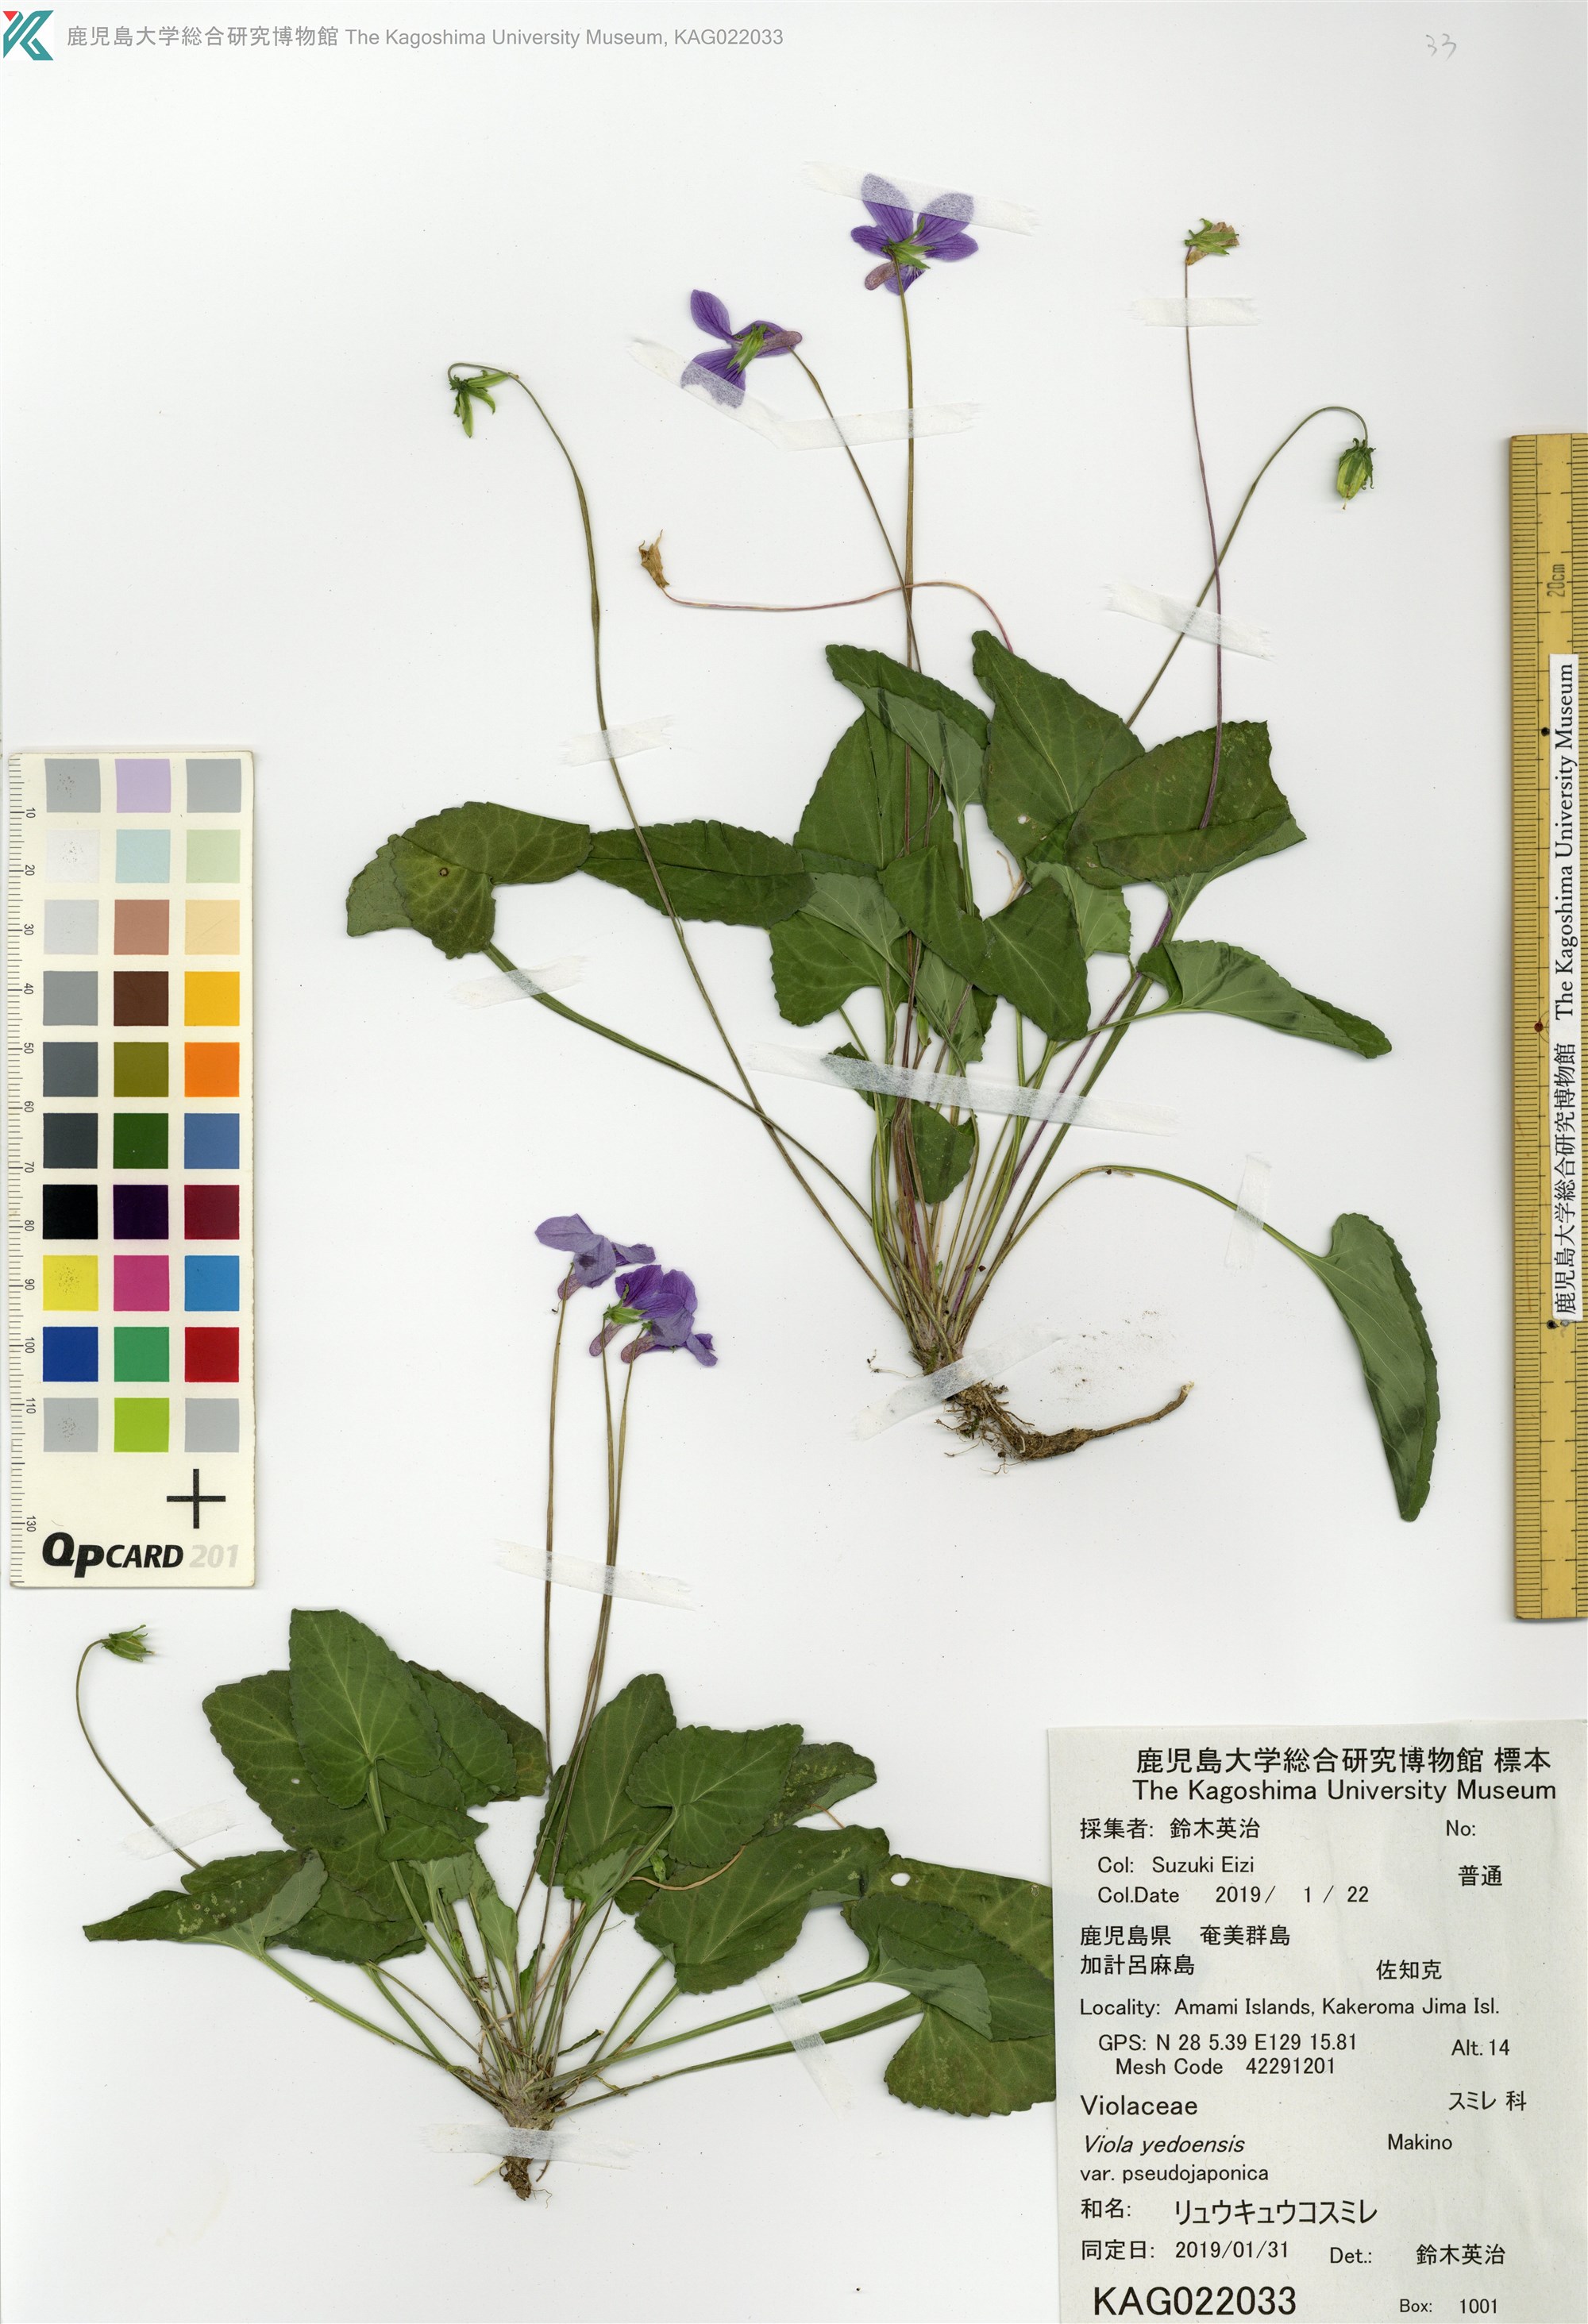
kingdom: Plantae
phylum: Tracheophyta
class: Magnoliopsida
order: Malpighiales
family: Violaceae
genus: Viola
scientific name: Viola philippica
